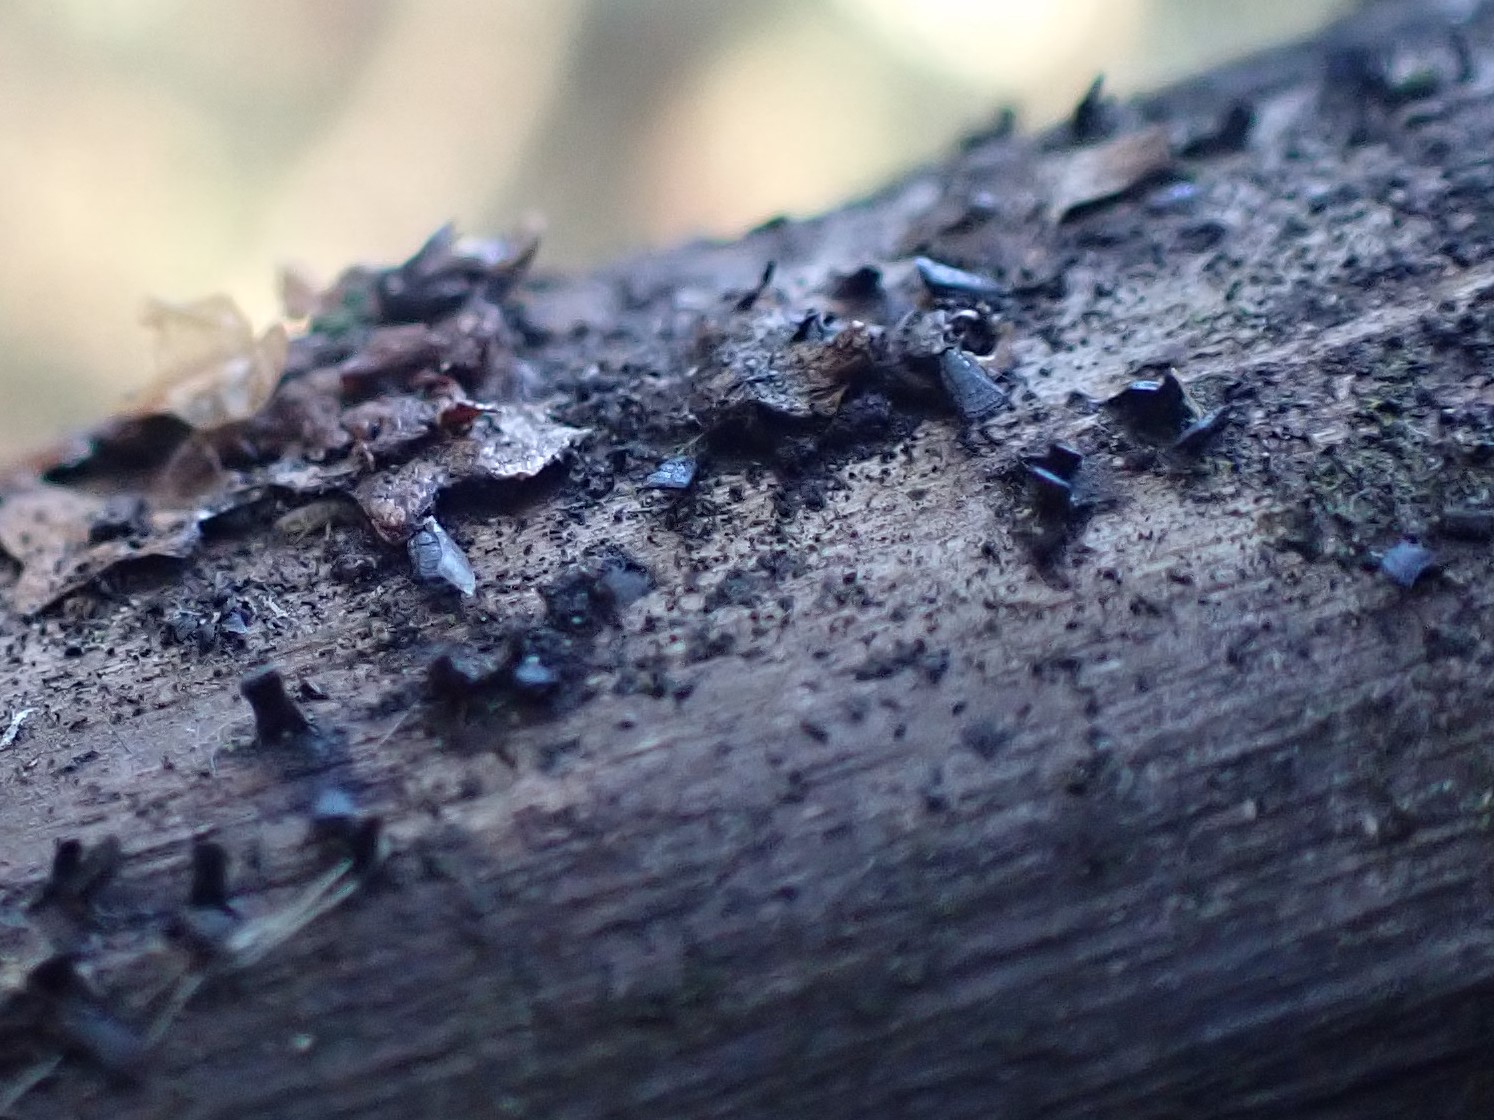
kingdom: Fungi
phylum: Ascomycota
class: Eurotiomycetes
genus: Glyphium
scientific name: Glyphium elatum
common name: kuløkse
